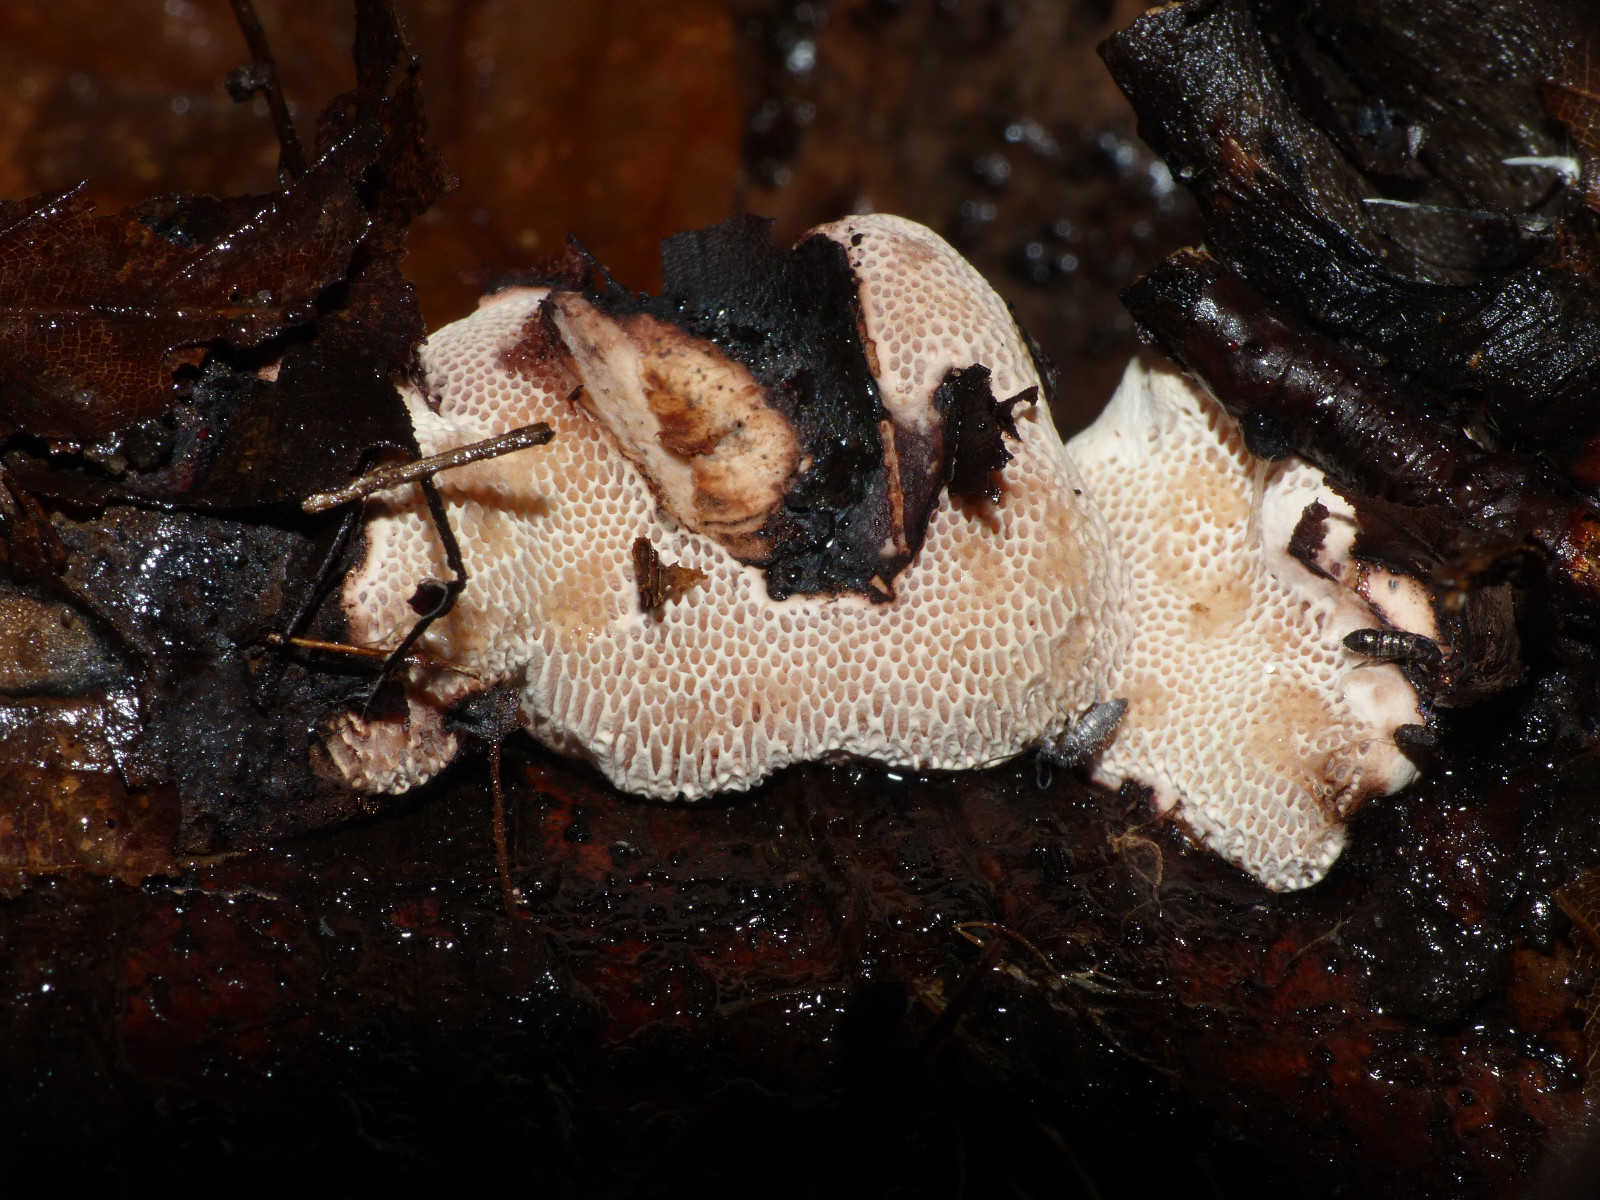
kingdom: Fungi
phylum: Basidiomycota
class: Agaricomycetes
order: Polyporales
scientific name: Polyporales
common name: poresvampordenen
